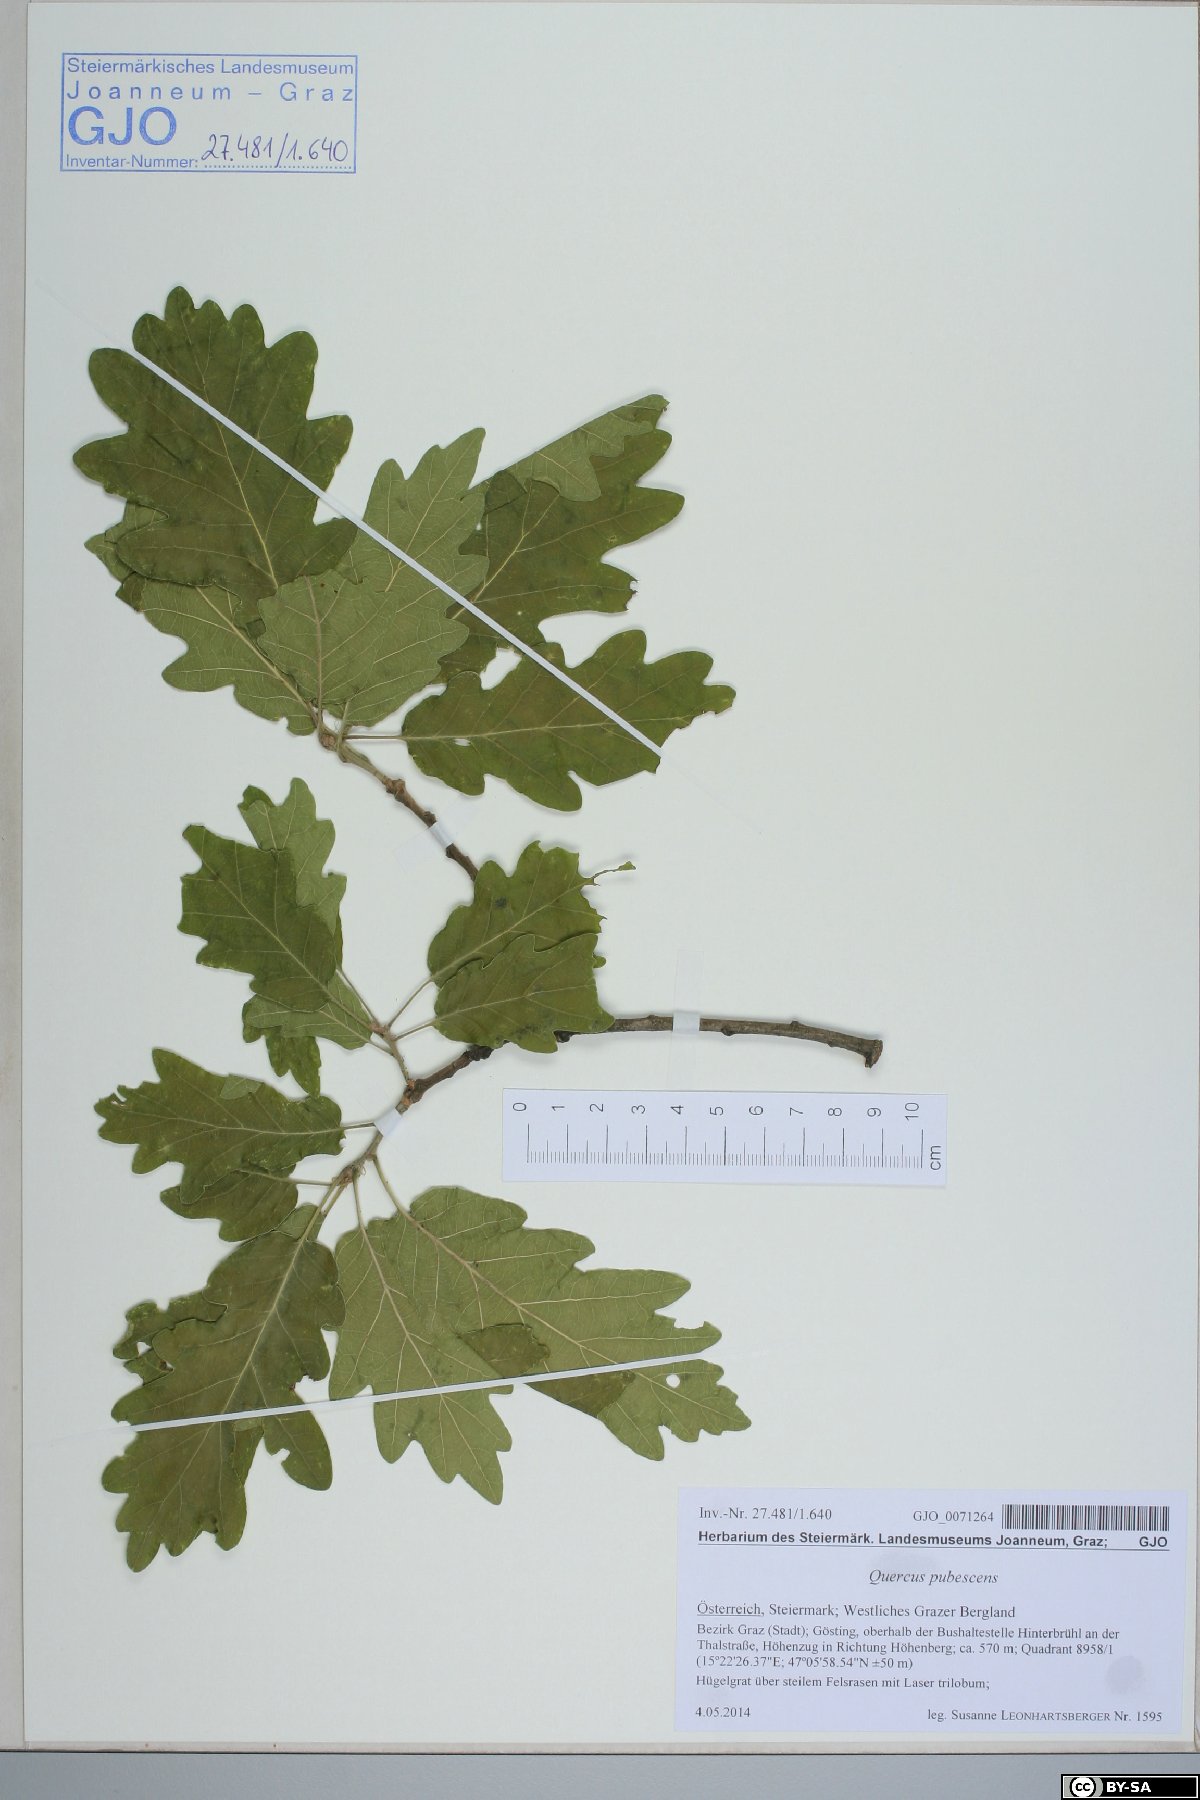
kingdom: Plantae
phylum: Tracheophyta
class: Magnoliopsida
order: Fagales
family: Fagaceae
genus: Quercus
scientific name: Quercus pubescens
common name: Downy oak
